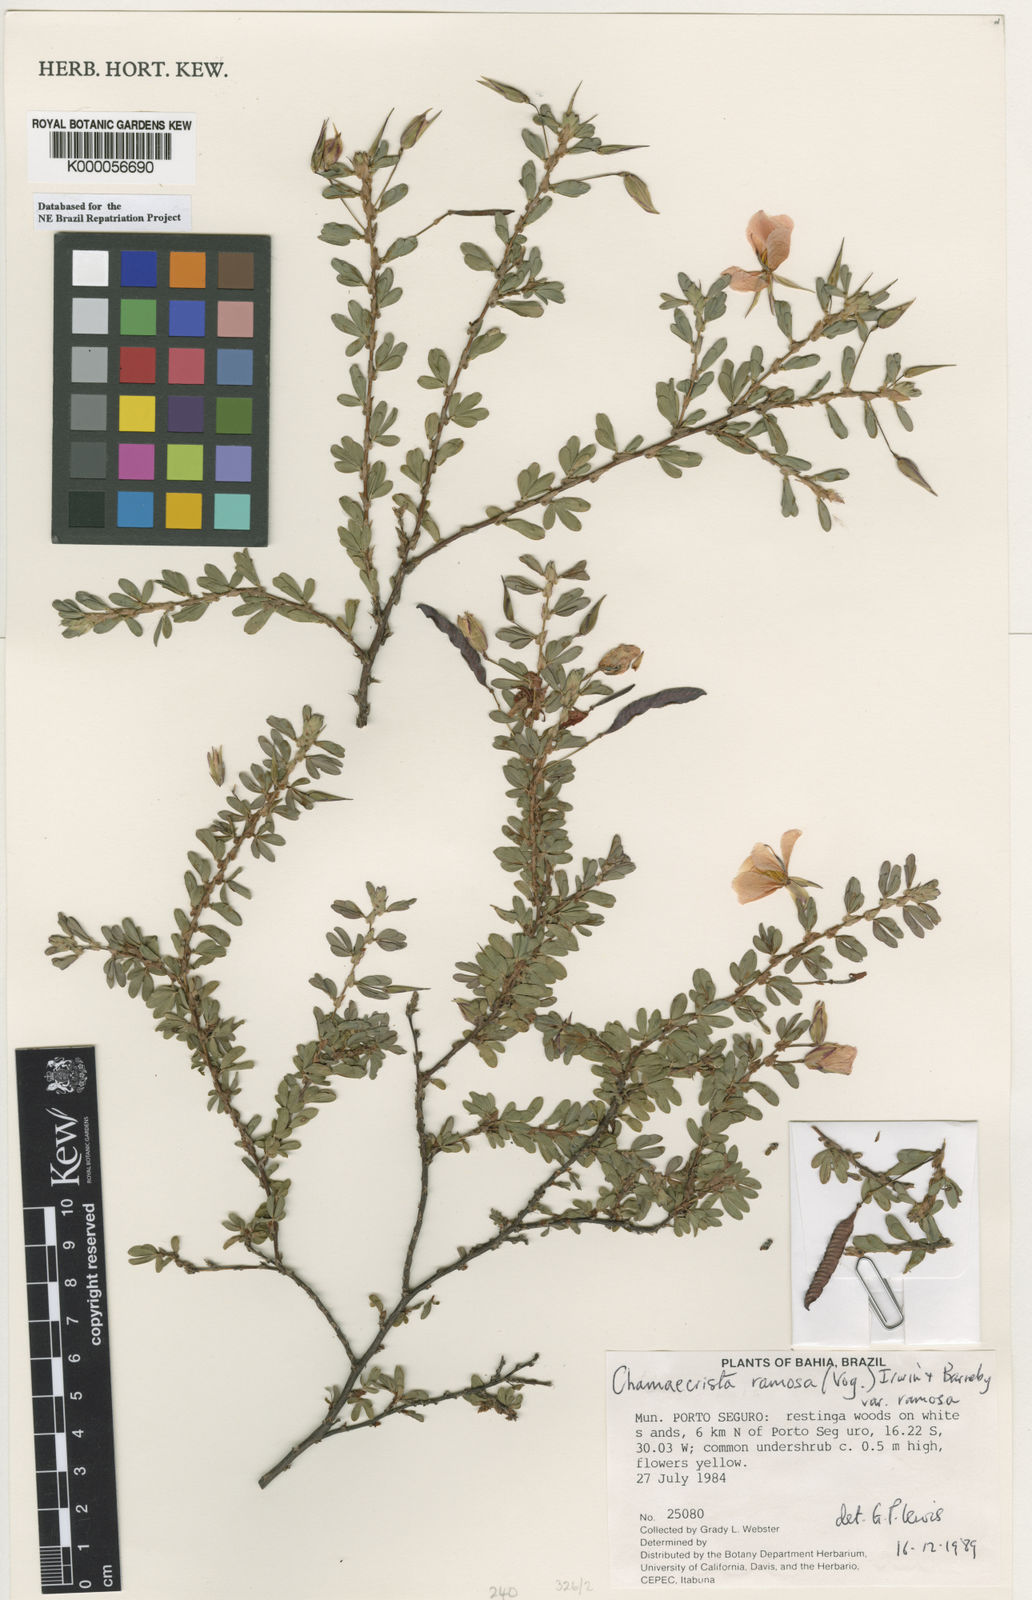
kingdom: Plantae
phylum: Tracheophyta
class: Magnoliopsida
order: Fabales
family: Fabaceae
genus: Chamaecrista
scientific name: Chamaecrista ramosa
